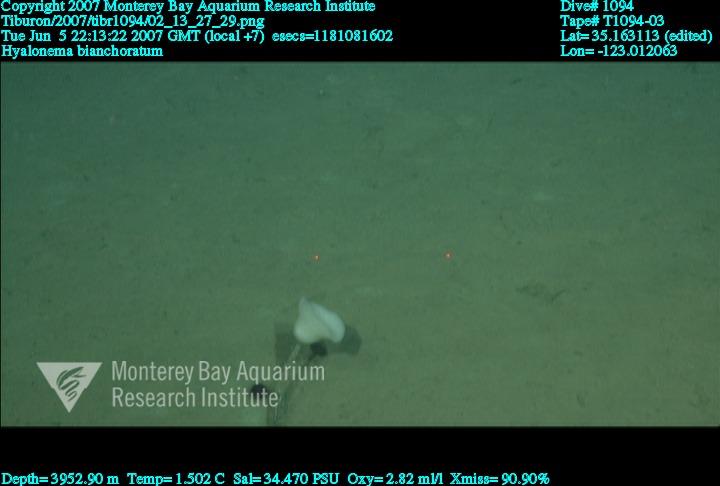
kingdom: Animalia
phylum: Porifera
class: Hexactinellida
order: Amphidiscosida
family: Hyalonematidae
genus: Hyalonema
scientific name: Hyalonema bianchoratum
